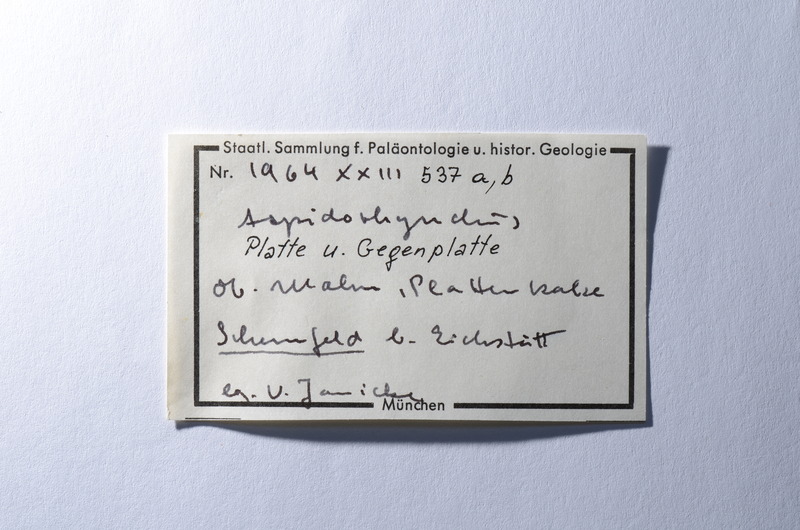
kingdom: Animalia
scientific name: Animalia
